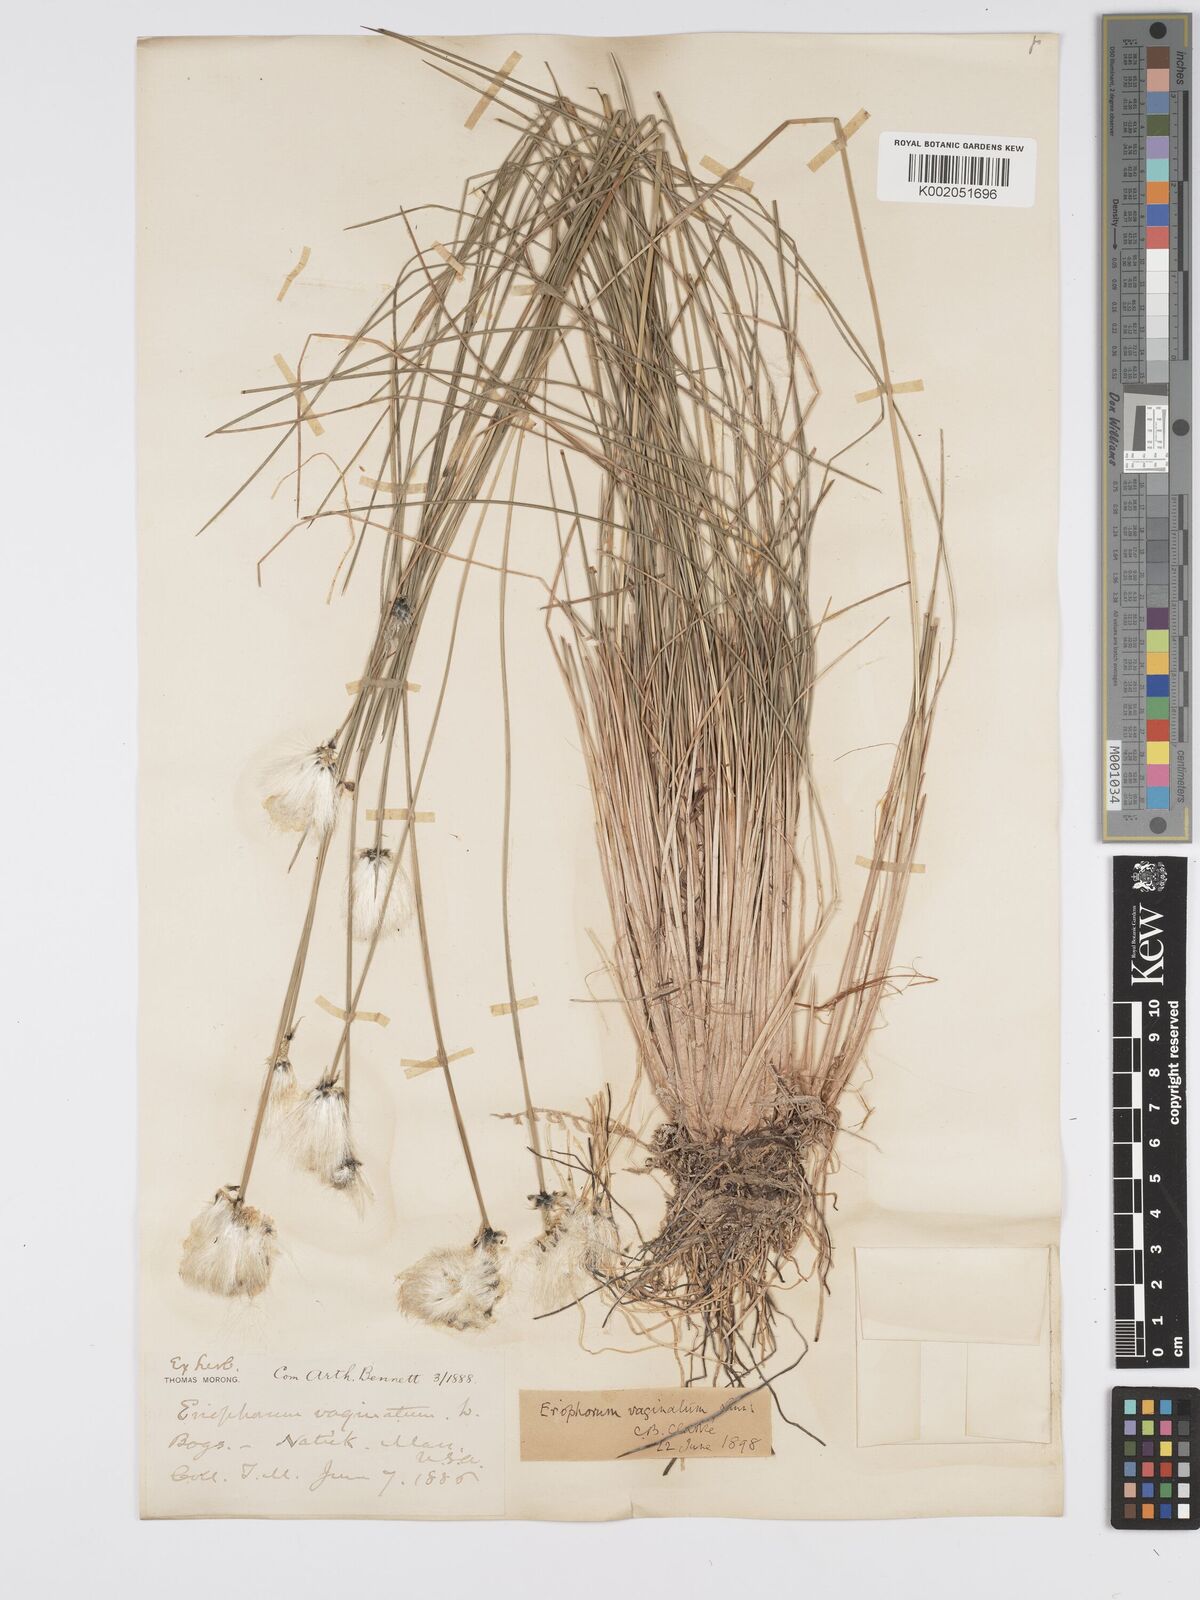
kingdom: Plantae
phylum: Tracheophyta
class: Liliopsida
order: Poales
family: Cyperaceae
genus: Eriophorum
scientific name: Eriophorum vaginatum
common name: Hare's-tail cottongrass
